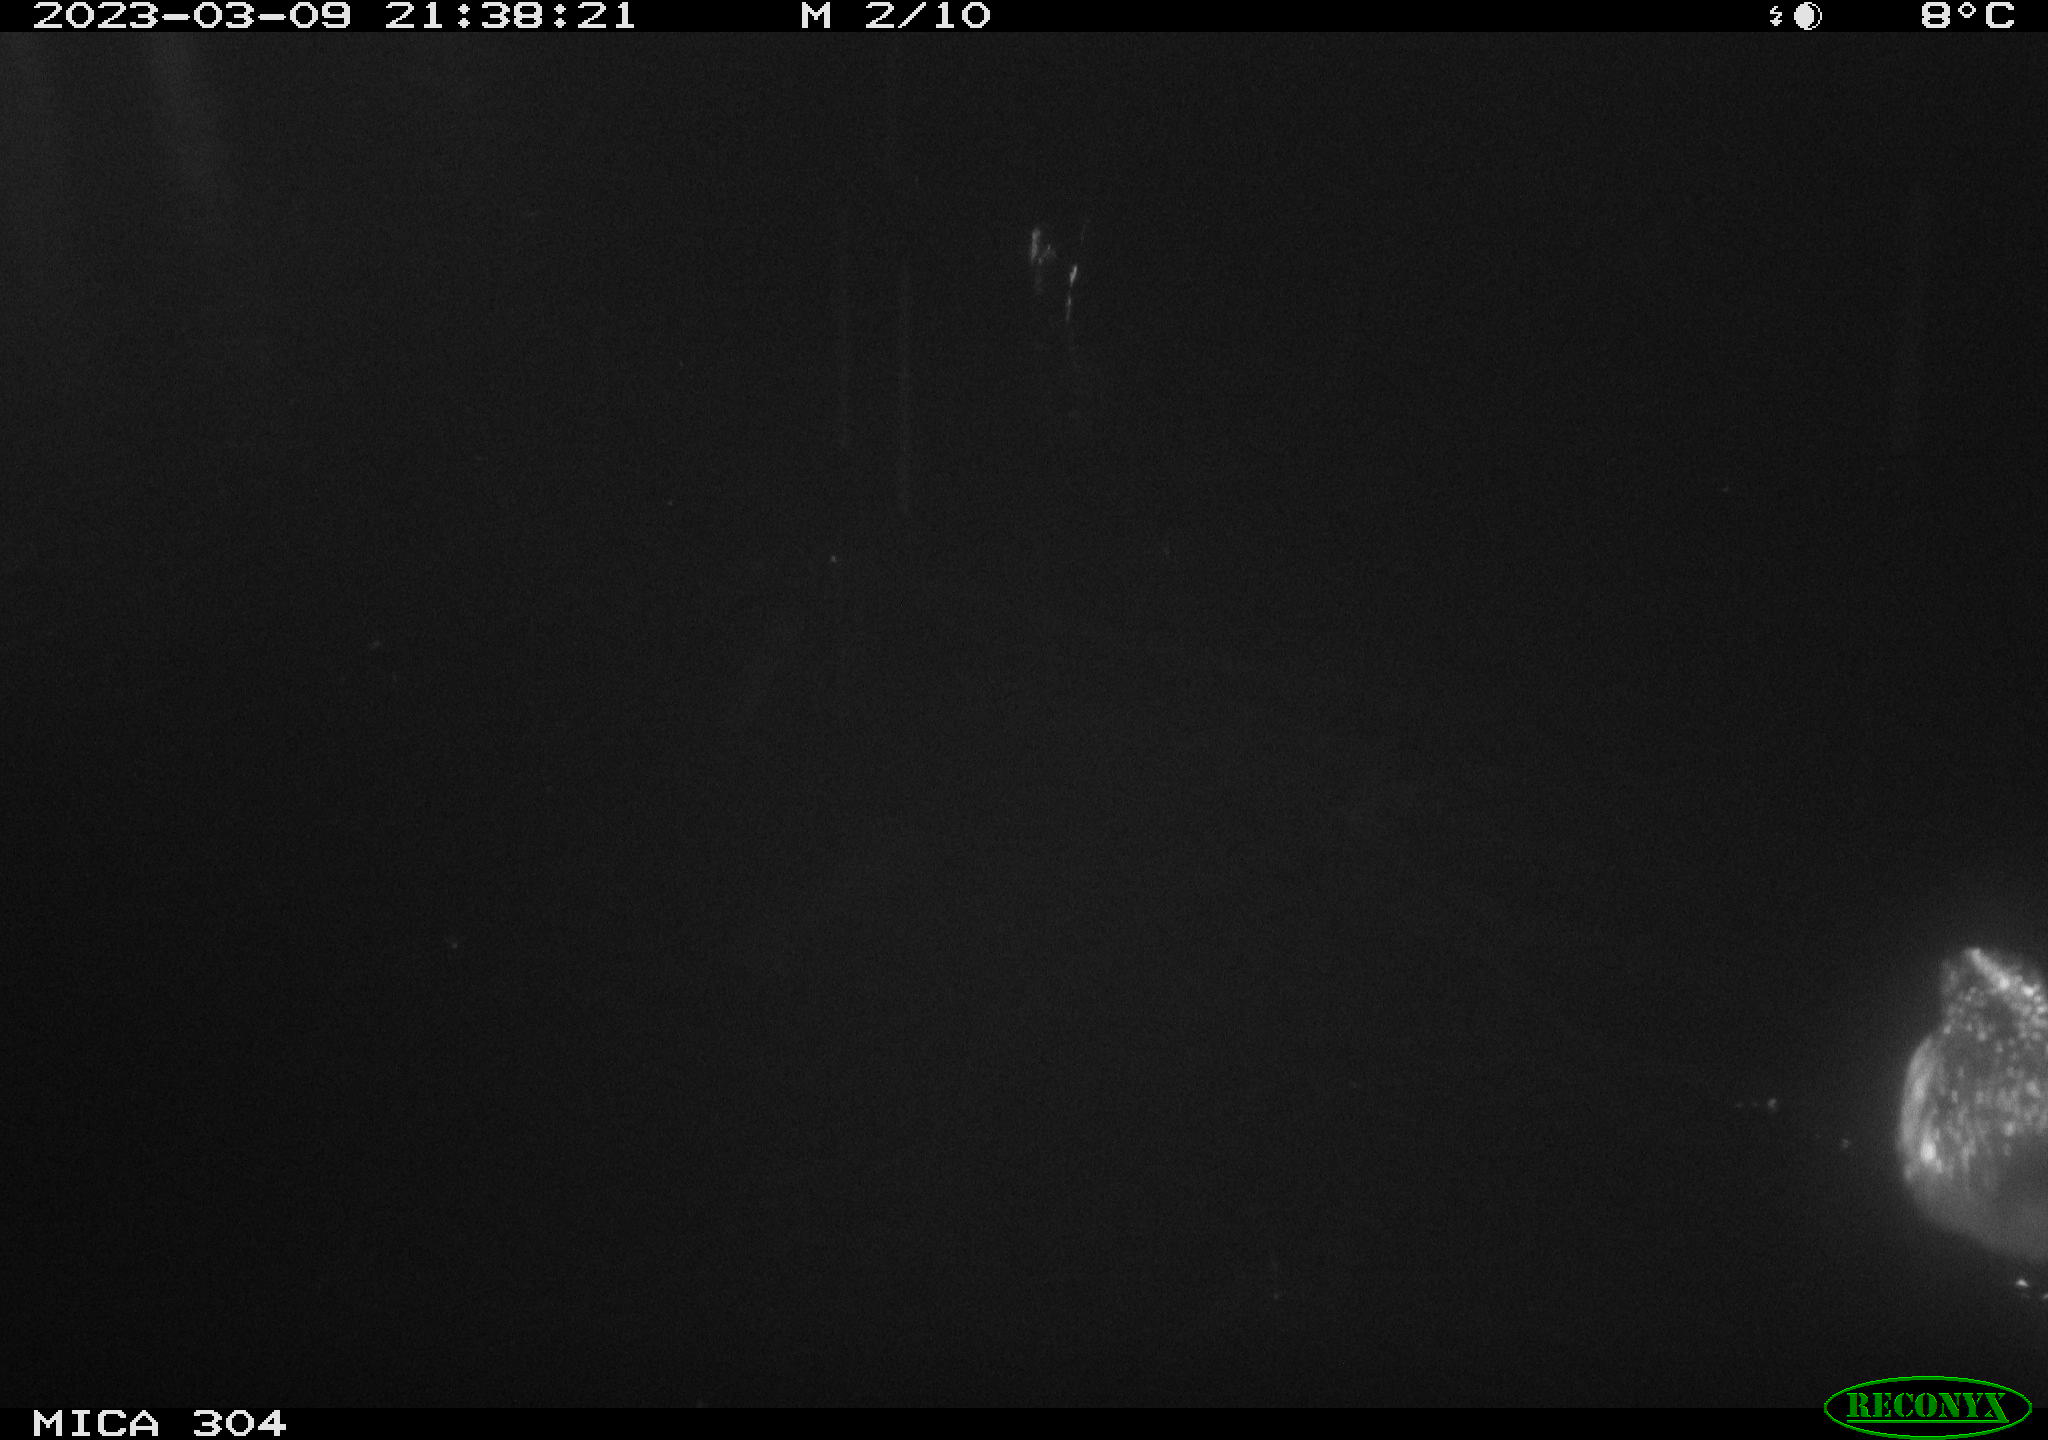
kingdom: Animalia
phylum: Chordata
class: Aves
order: Anseriformes
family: Anatidae
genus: Anas
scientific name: Anas
